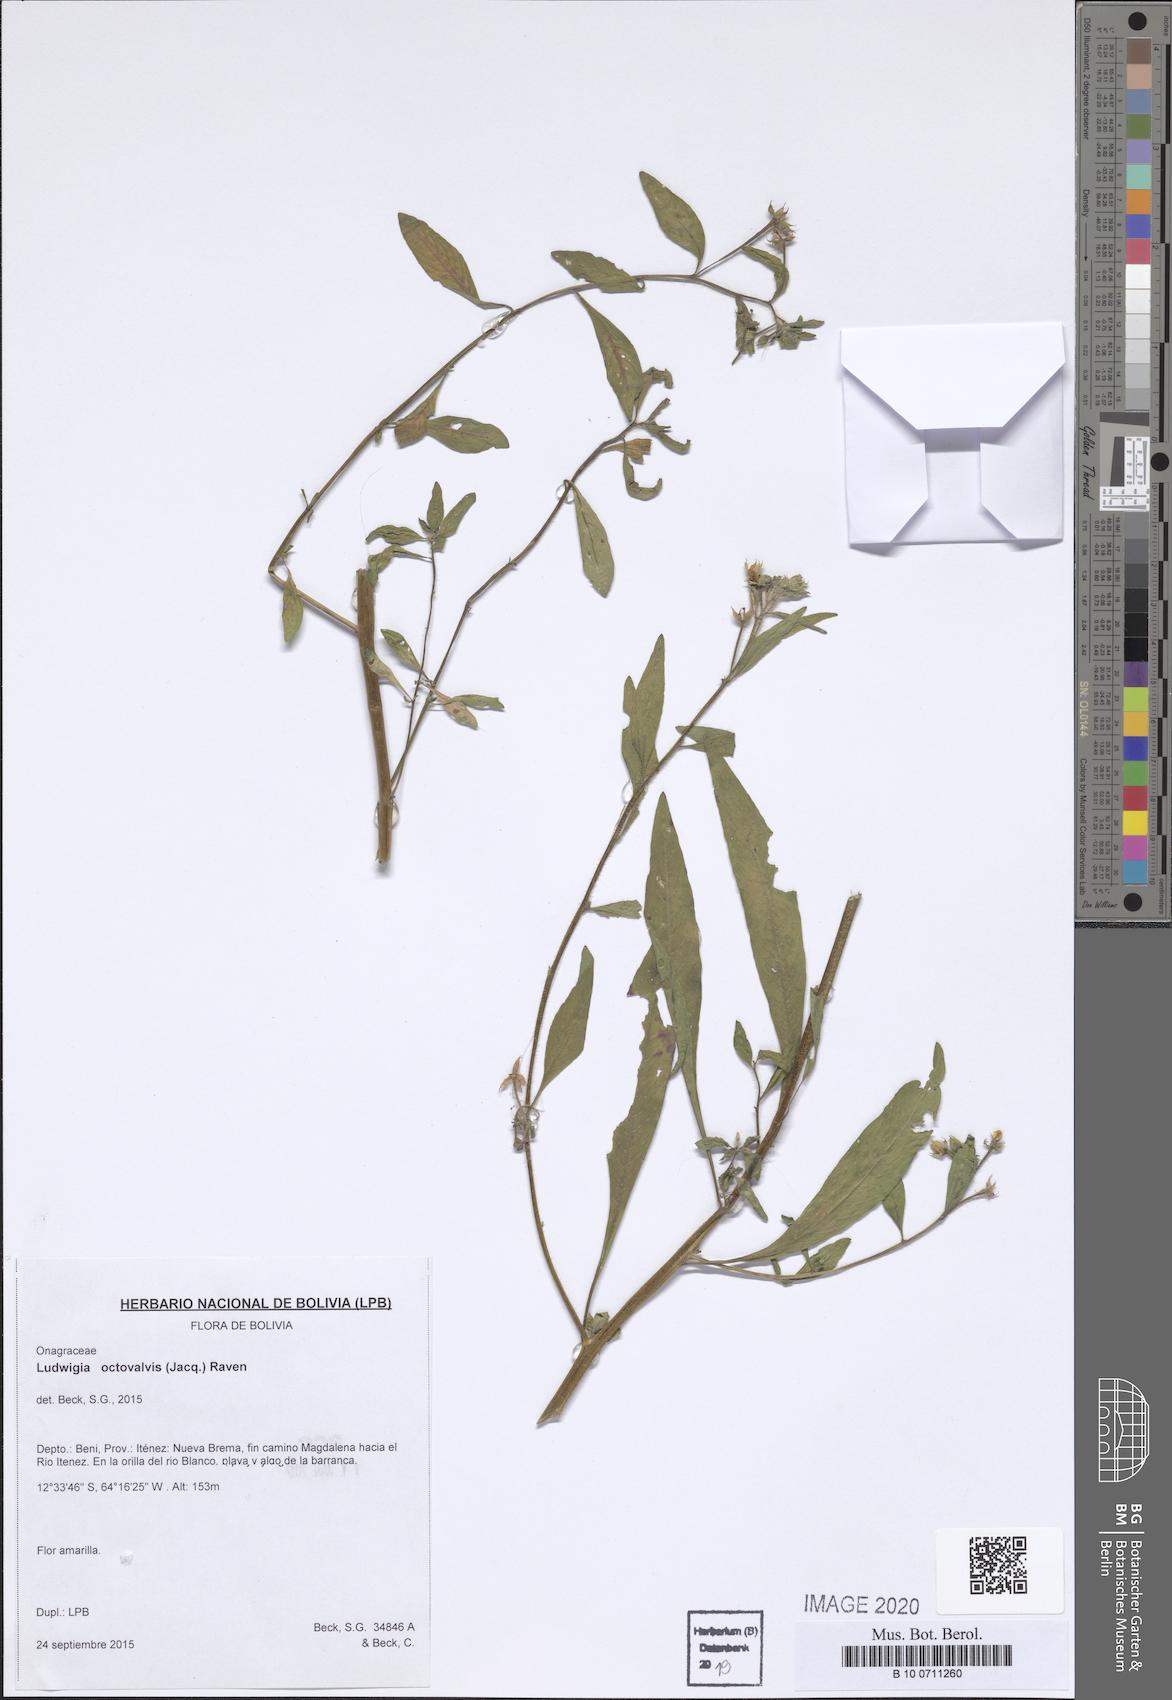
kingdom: Plantae
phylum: Tracheophyta
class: Magnoliopsida
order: Myrtales
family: Onagraceae
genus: Ludwigia
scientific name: Ludwigia octovalvis
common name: Water-primrose
